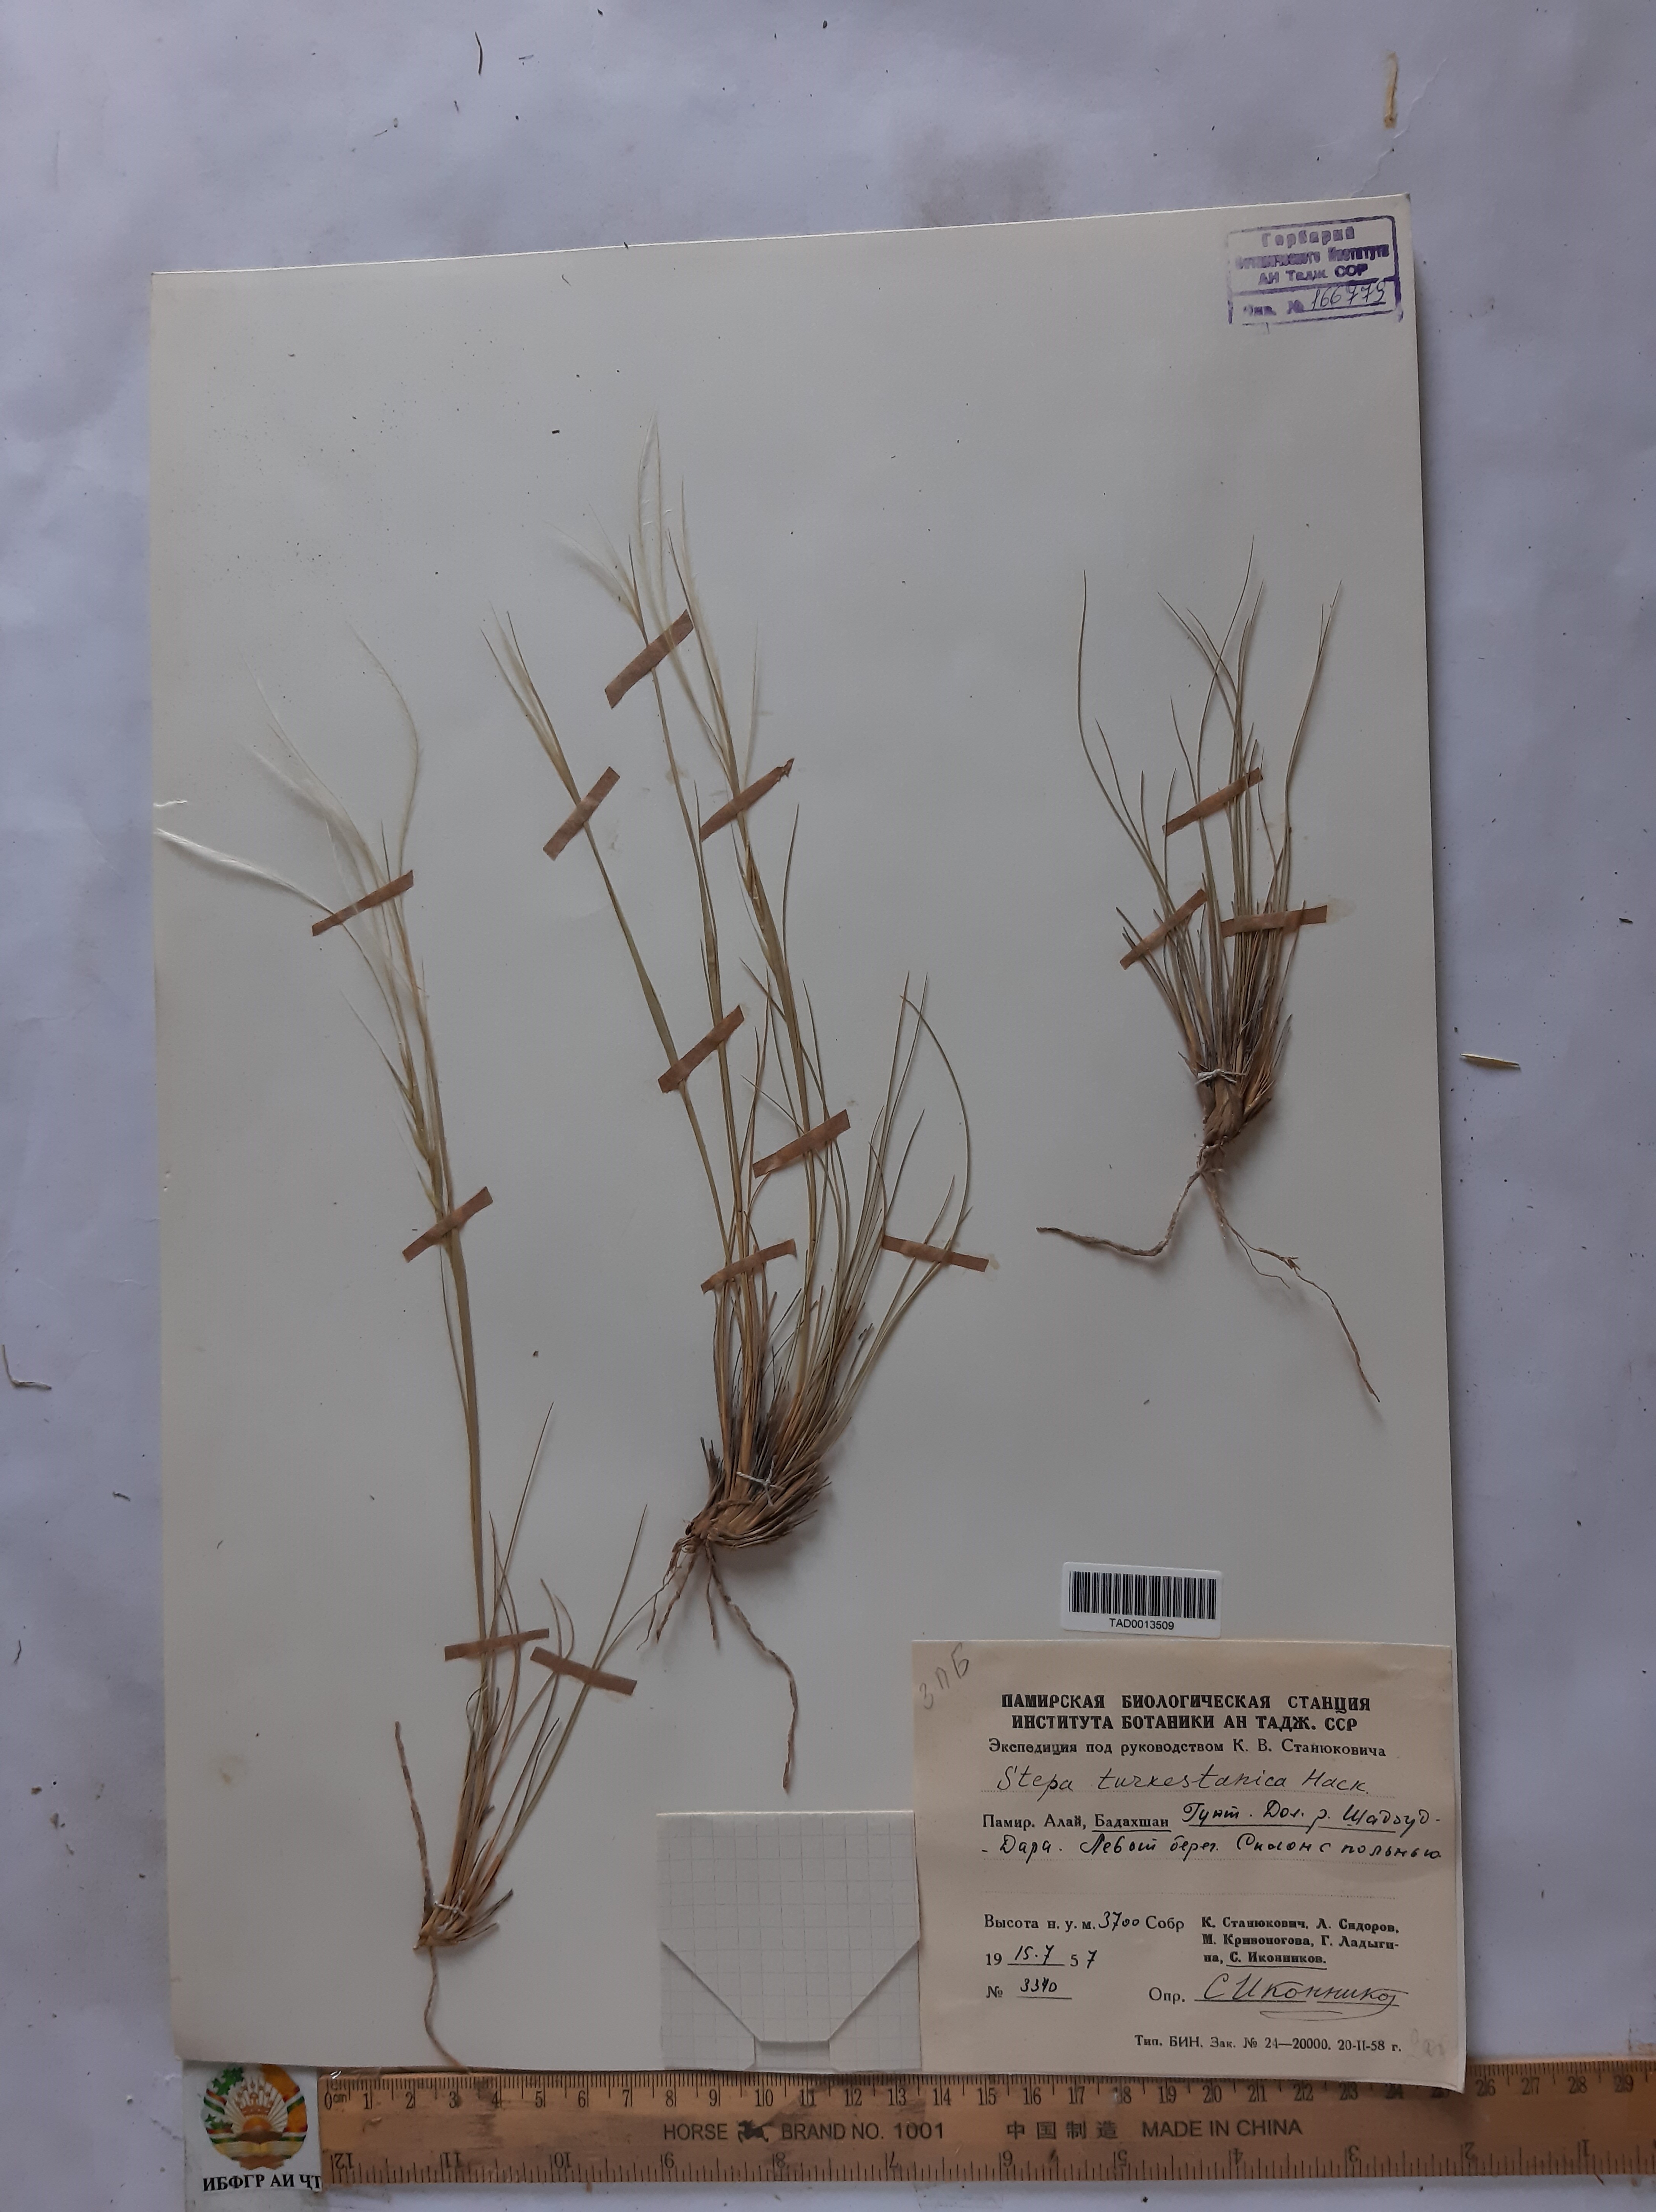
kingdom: Plantae
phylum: Tracheophyta
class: Liliopsida
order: Poales
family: Poaceae
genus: Stipa
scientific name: Stipa turkestanica
